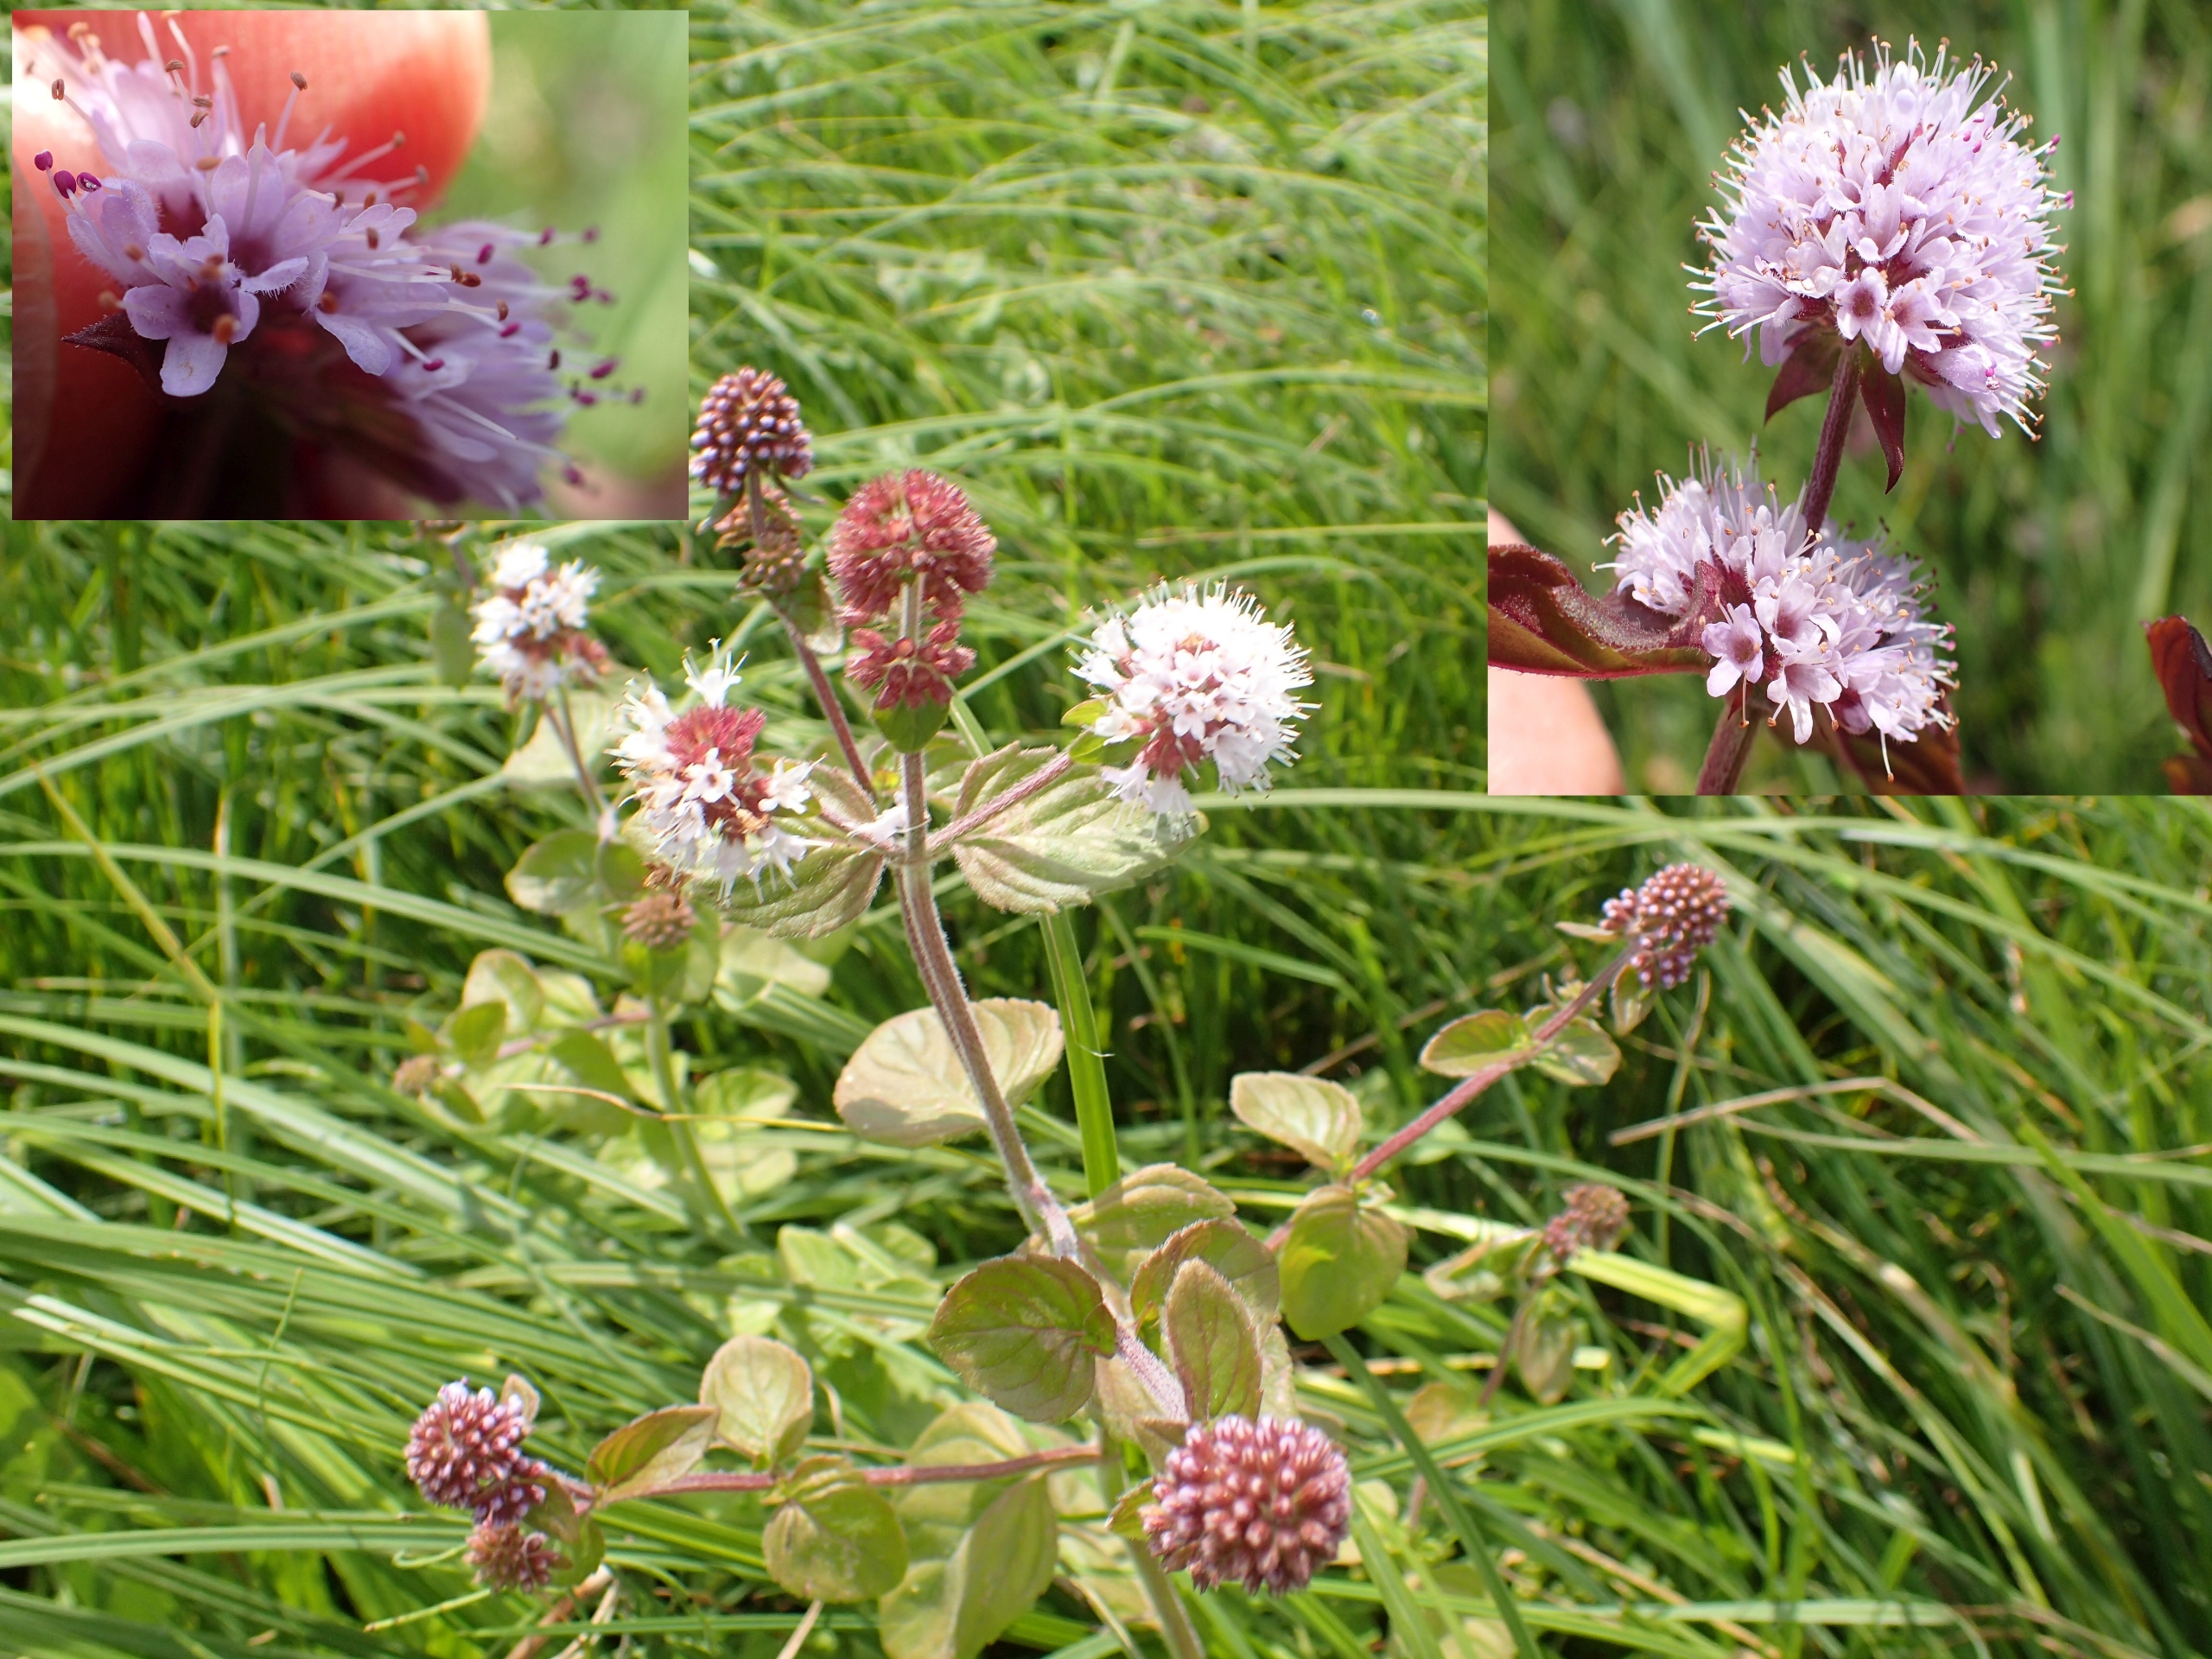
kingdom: Plantae
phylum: Tracheophyta
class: Magnoliopsida
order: Lamiales
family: Lamiaceae
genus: Mentha
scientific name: Mentha aquatica
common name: Vand-mynte
